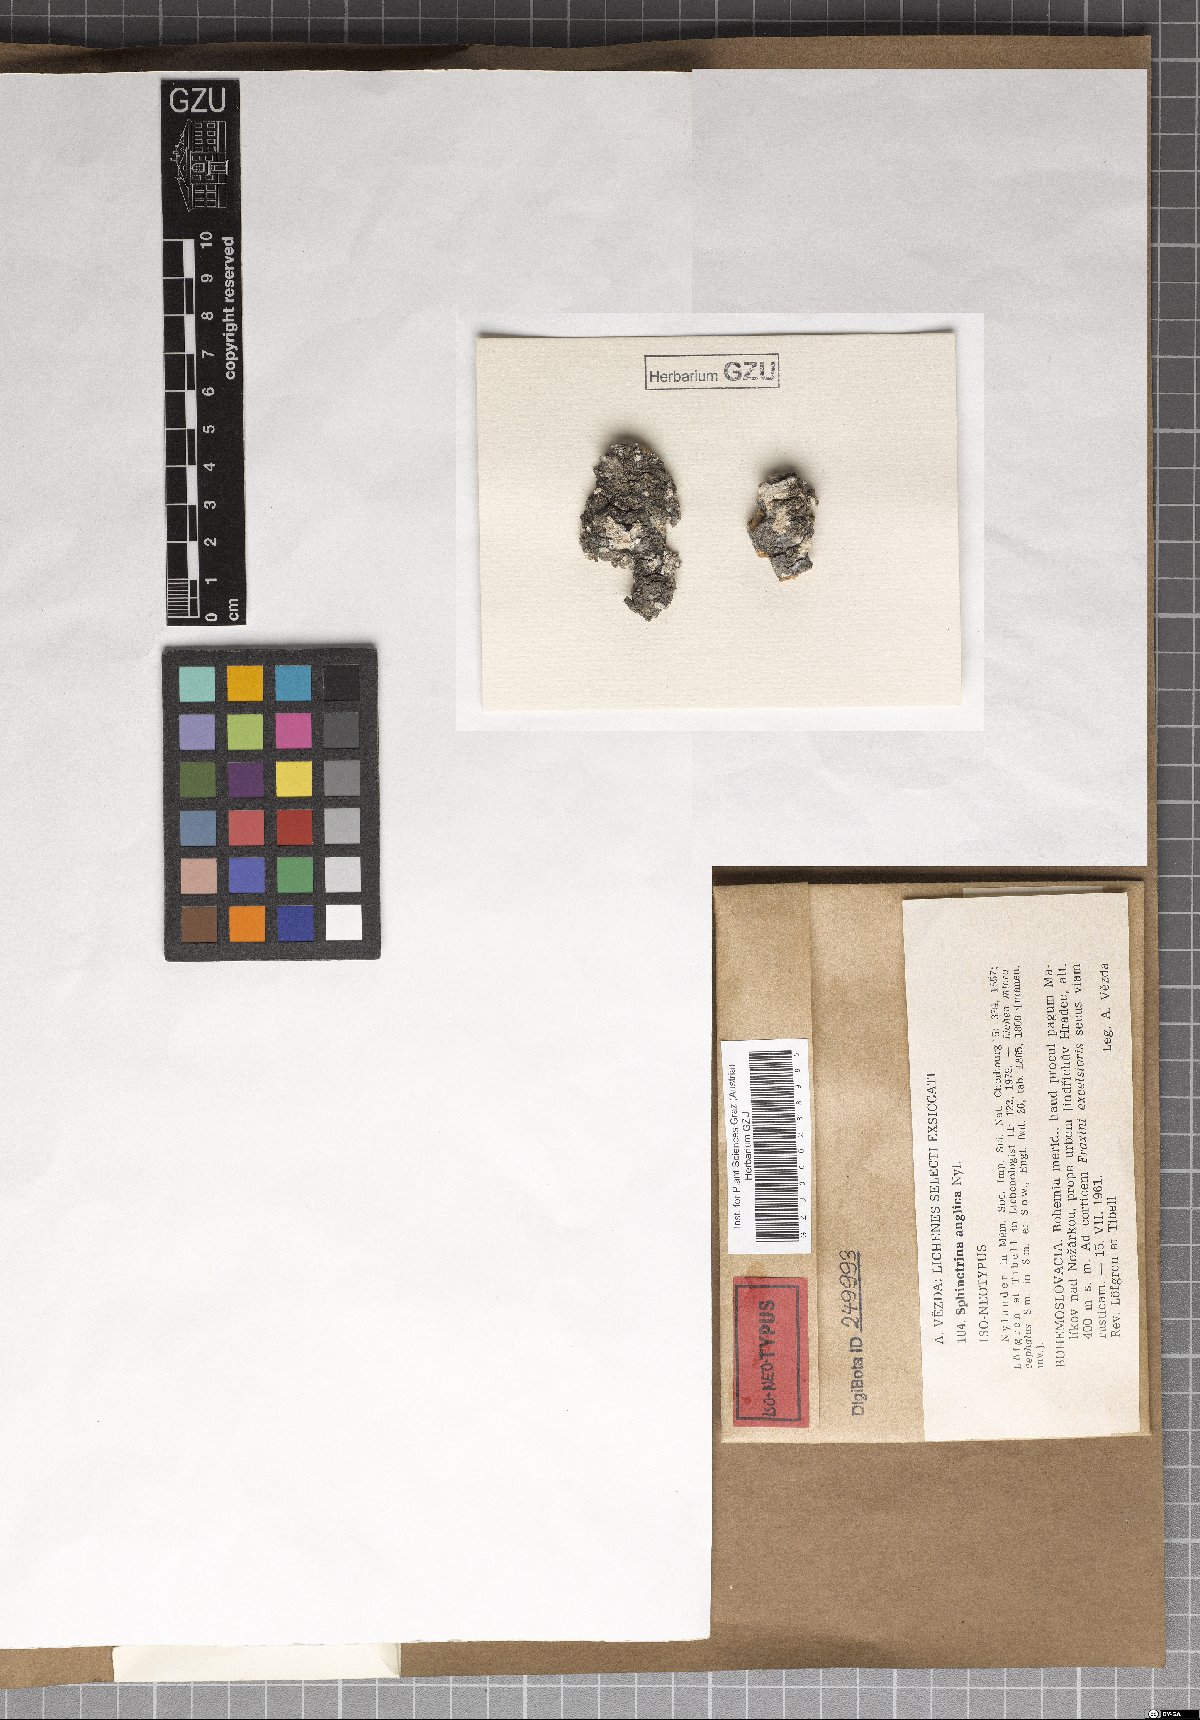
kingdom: Fungi
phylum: Ascomycota
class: Eurotiomycetes
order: Mycocaliciales
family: Sphinctrinaceae
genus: Sphinctrina
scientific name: Sphinctrina anglica
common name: English parasite needle lichen
